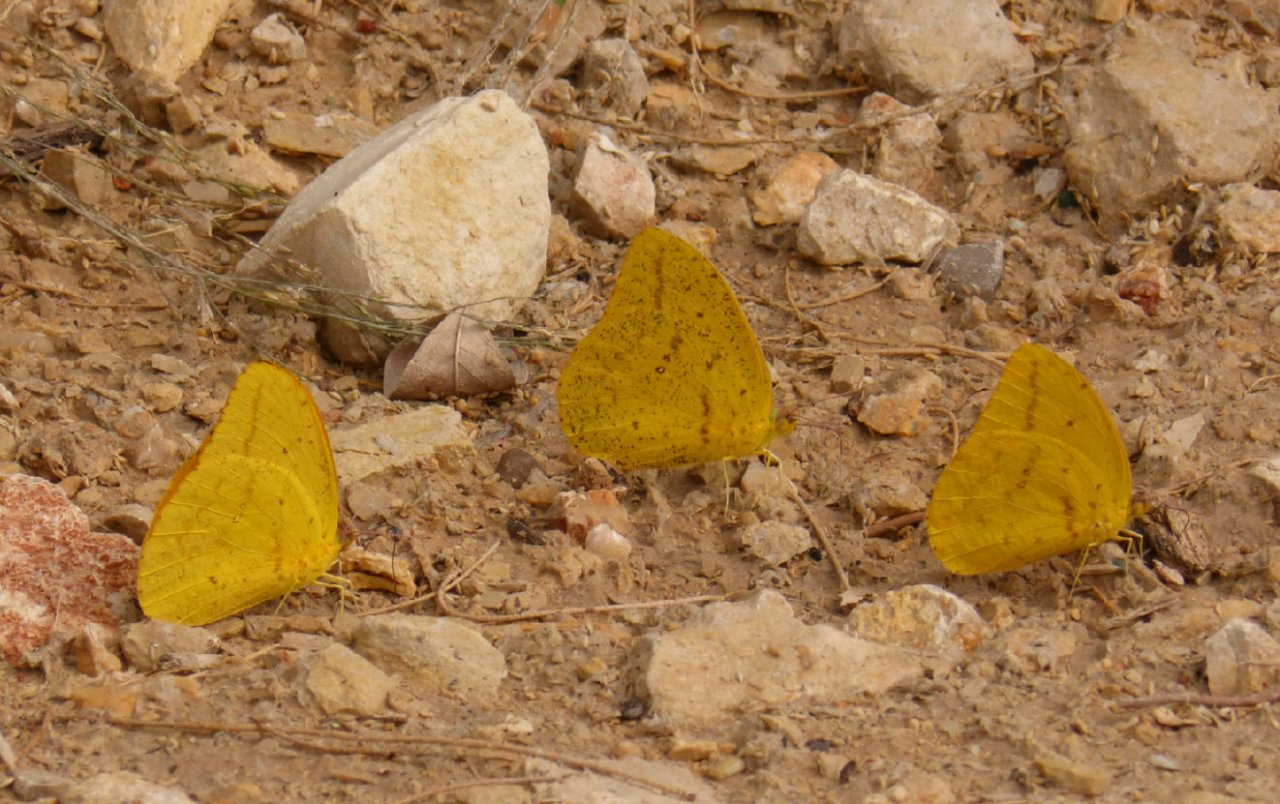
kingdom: Animalia
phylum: Arthropoda
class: Insecta
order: Lepidoptera
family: Pieridae
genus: Phoebis
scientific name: Phoebis agarithe
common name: Large Orange Sulphur
